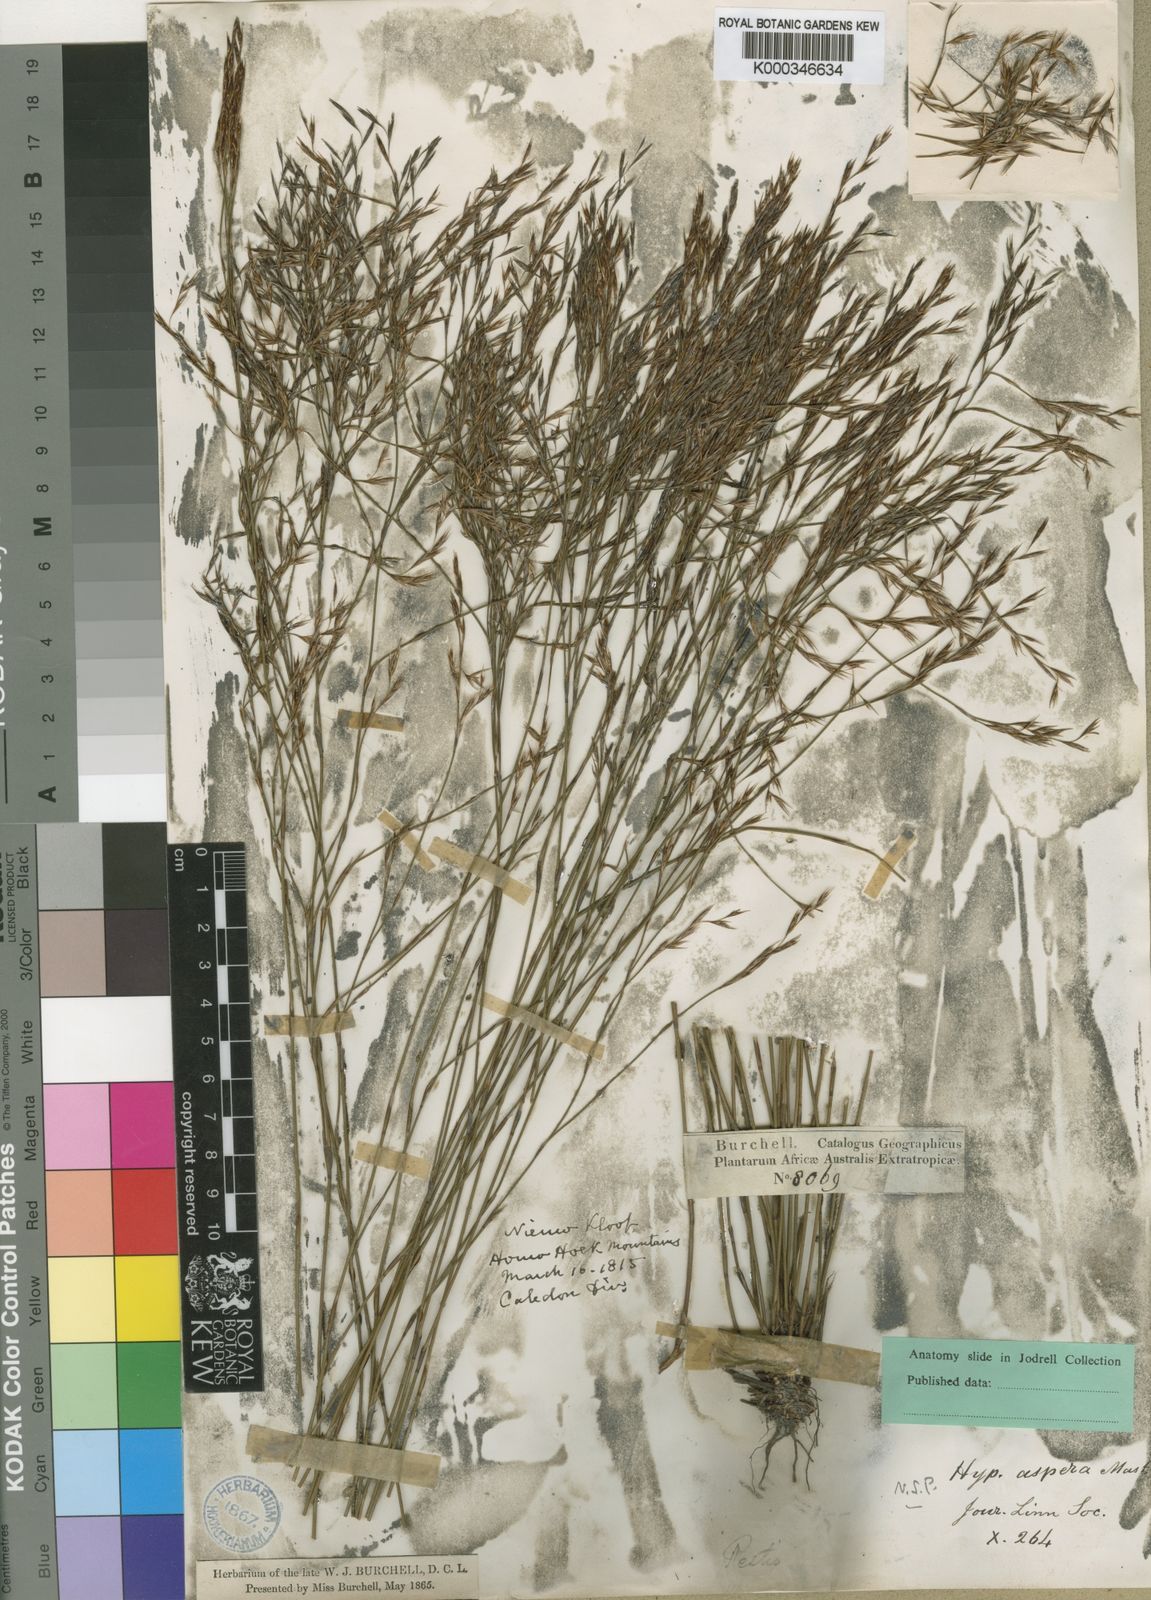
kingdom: Plantae
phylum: Tracheophyta
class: Liliopsida
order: Poales
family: Restionaceae
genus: Restio
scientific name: Restio asperus
